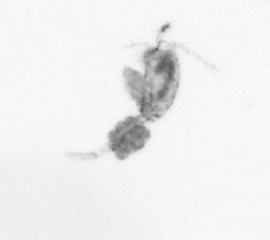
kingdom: Animalia
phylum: Arthropoda
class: Copepoda
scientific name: Copepoda
